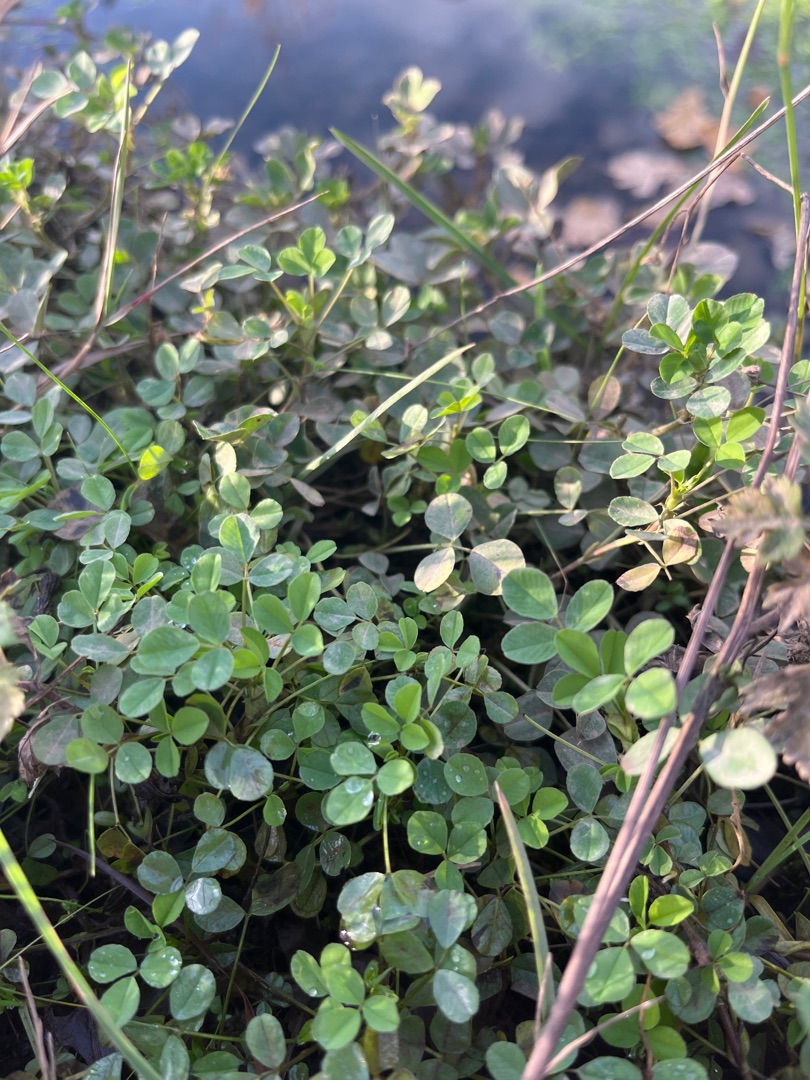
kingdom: Plantae
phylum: Tracheophyta
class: Magnoliopsida
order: Fabales
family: Fabaceae
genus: Medicago
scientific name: Medicago lupulina
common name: Humle-sneglebælg
